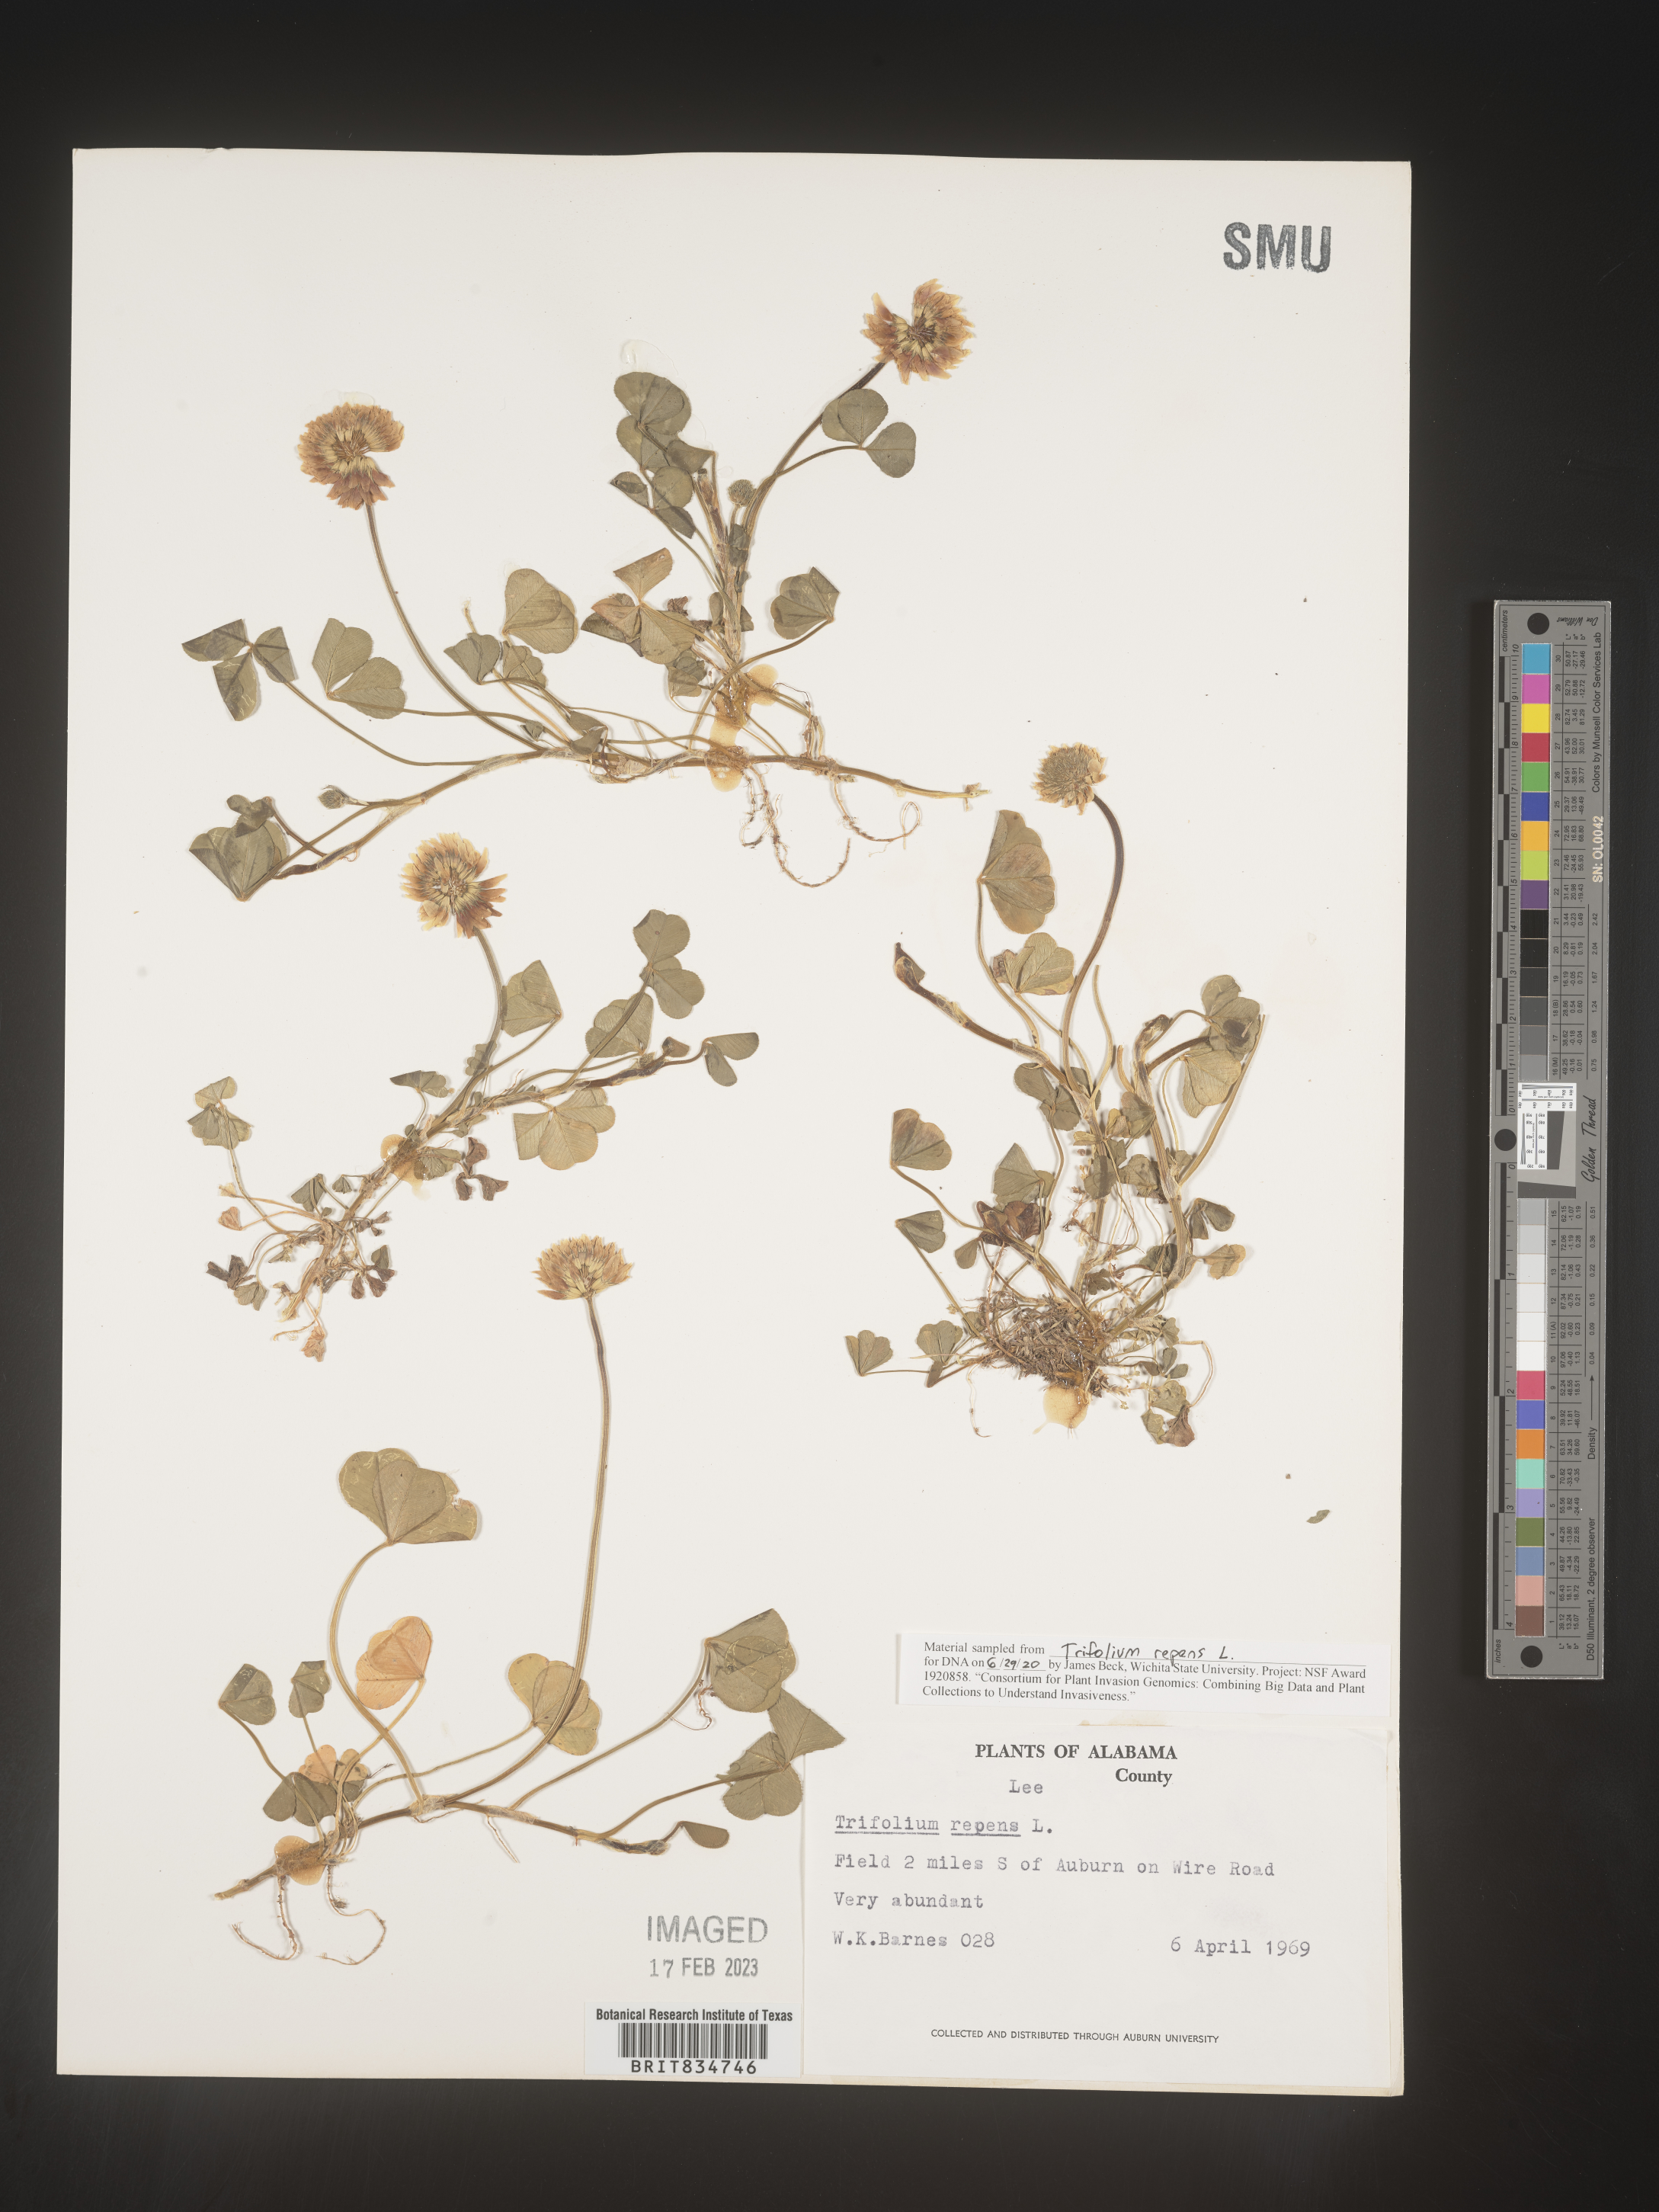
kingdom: Plantae
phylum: Tracheophyta
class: Magnoliopsida
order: Fabales
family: Fabaceae
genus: Trifolium
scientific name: Trifolium repens
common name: White clover
